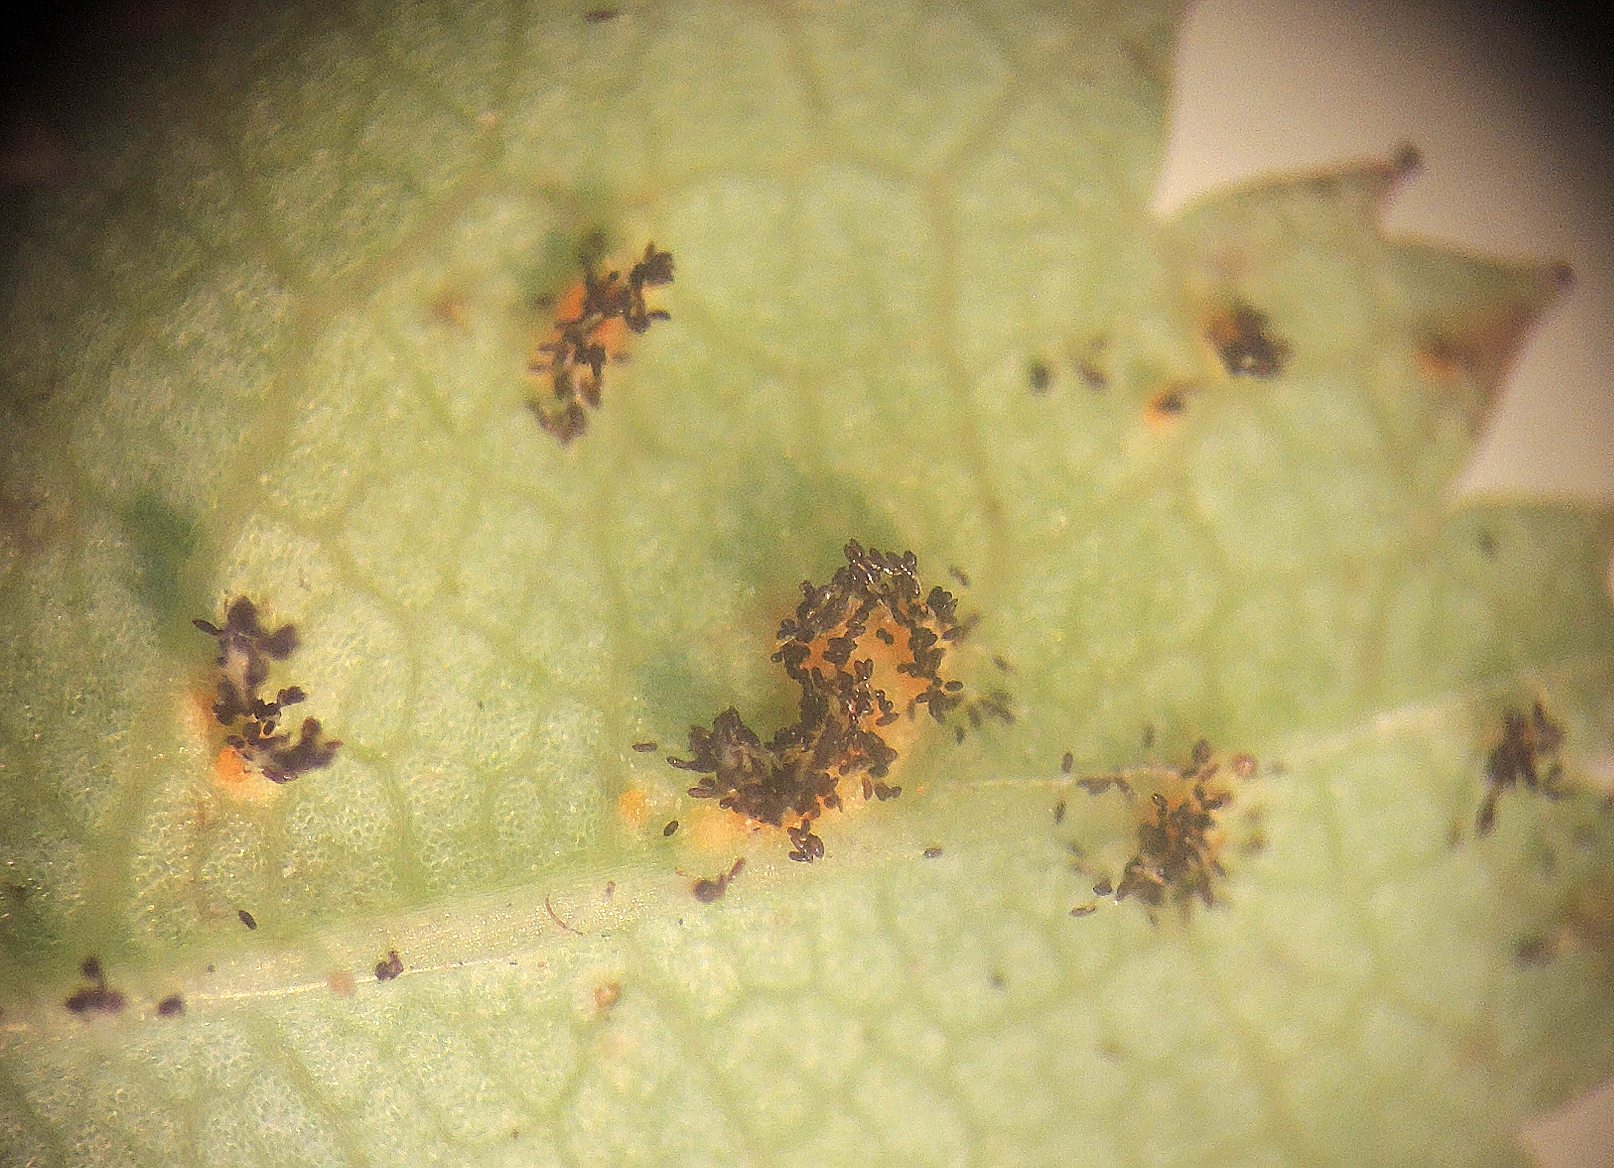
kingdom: Fungi
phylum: Basidiomycota
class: Pucciniomycetes
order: Pucciniales
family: Phragmidiaceae
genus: Phragmidium
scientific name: Phragmidium rosae-pimpinellifoliae
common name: Burnet rose rust
